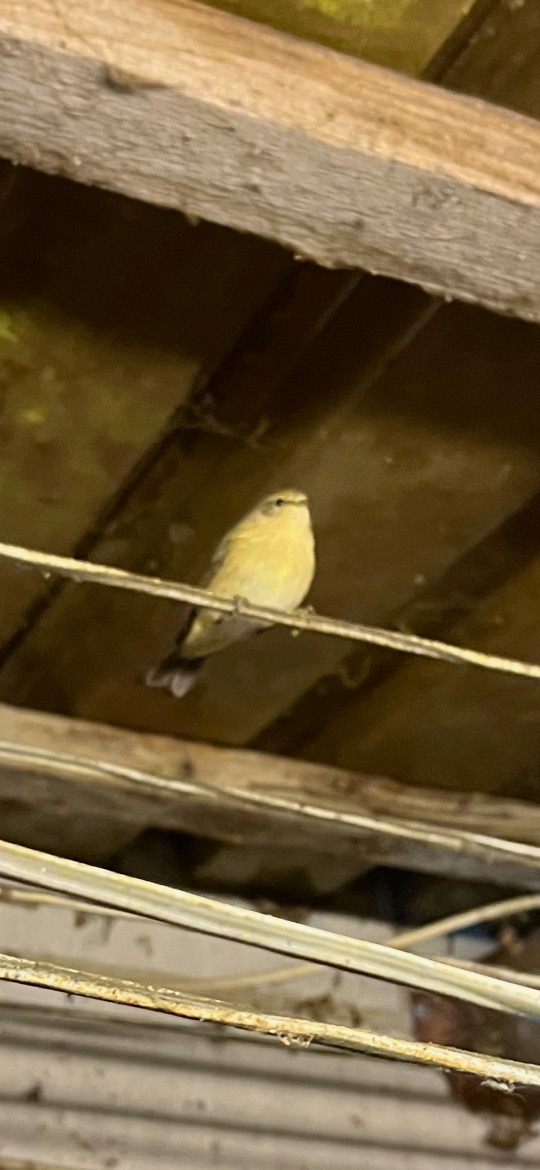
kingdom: Animalia
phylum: Chordata
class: Aves
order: Passeriformes
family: Phylloscopidae
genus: Phylloscopus
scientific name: Phylloscopus collybita
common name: Gransanger
